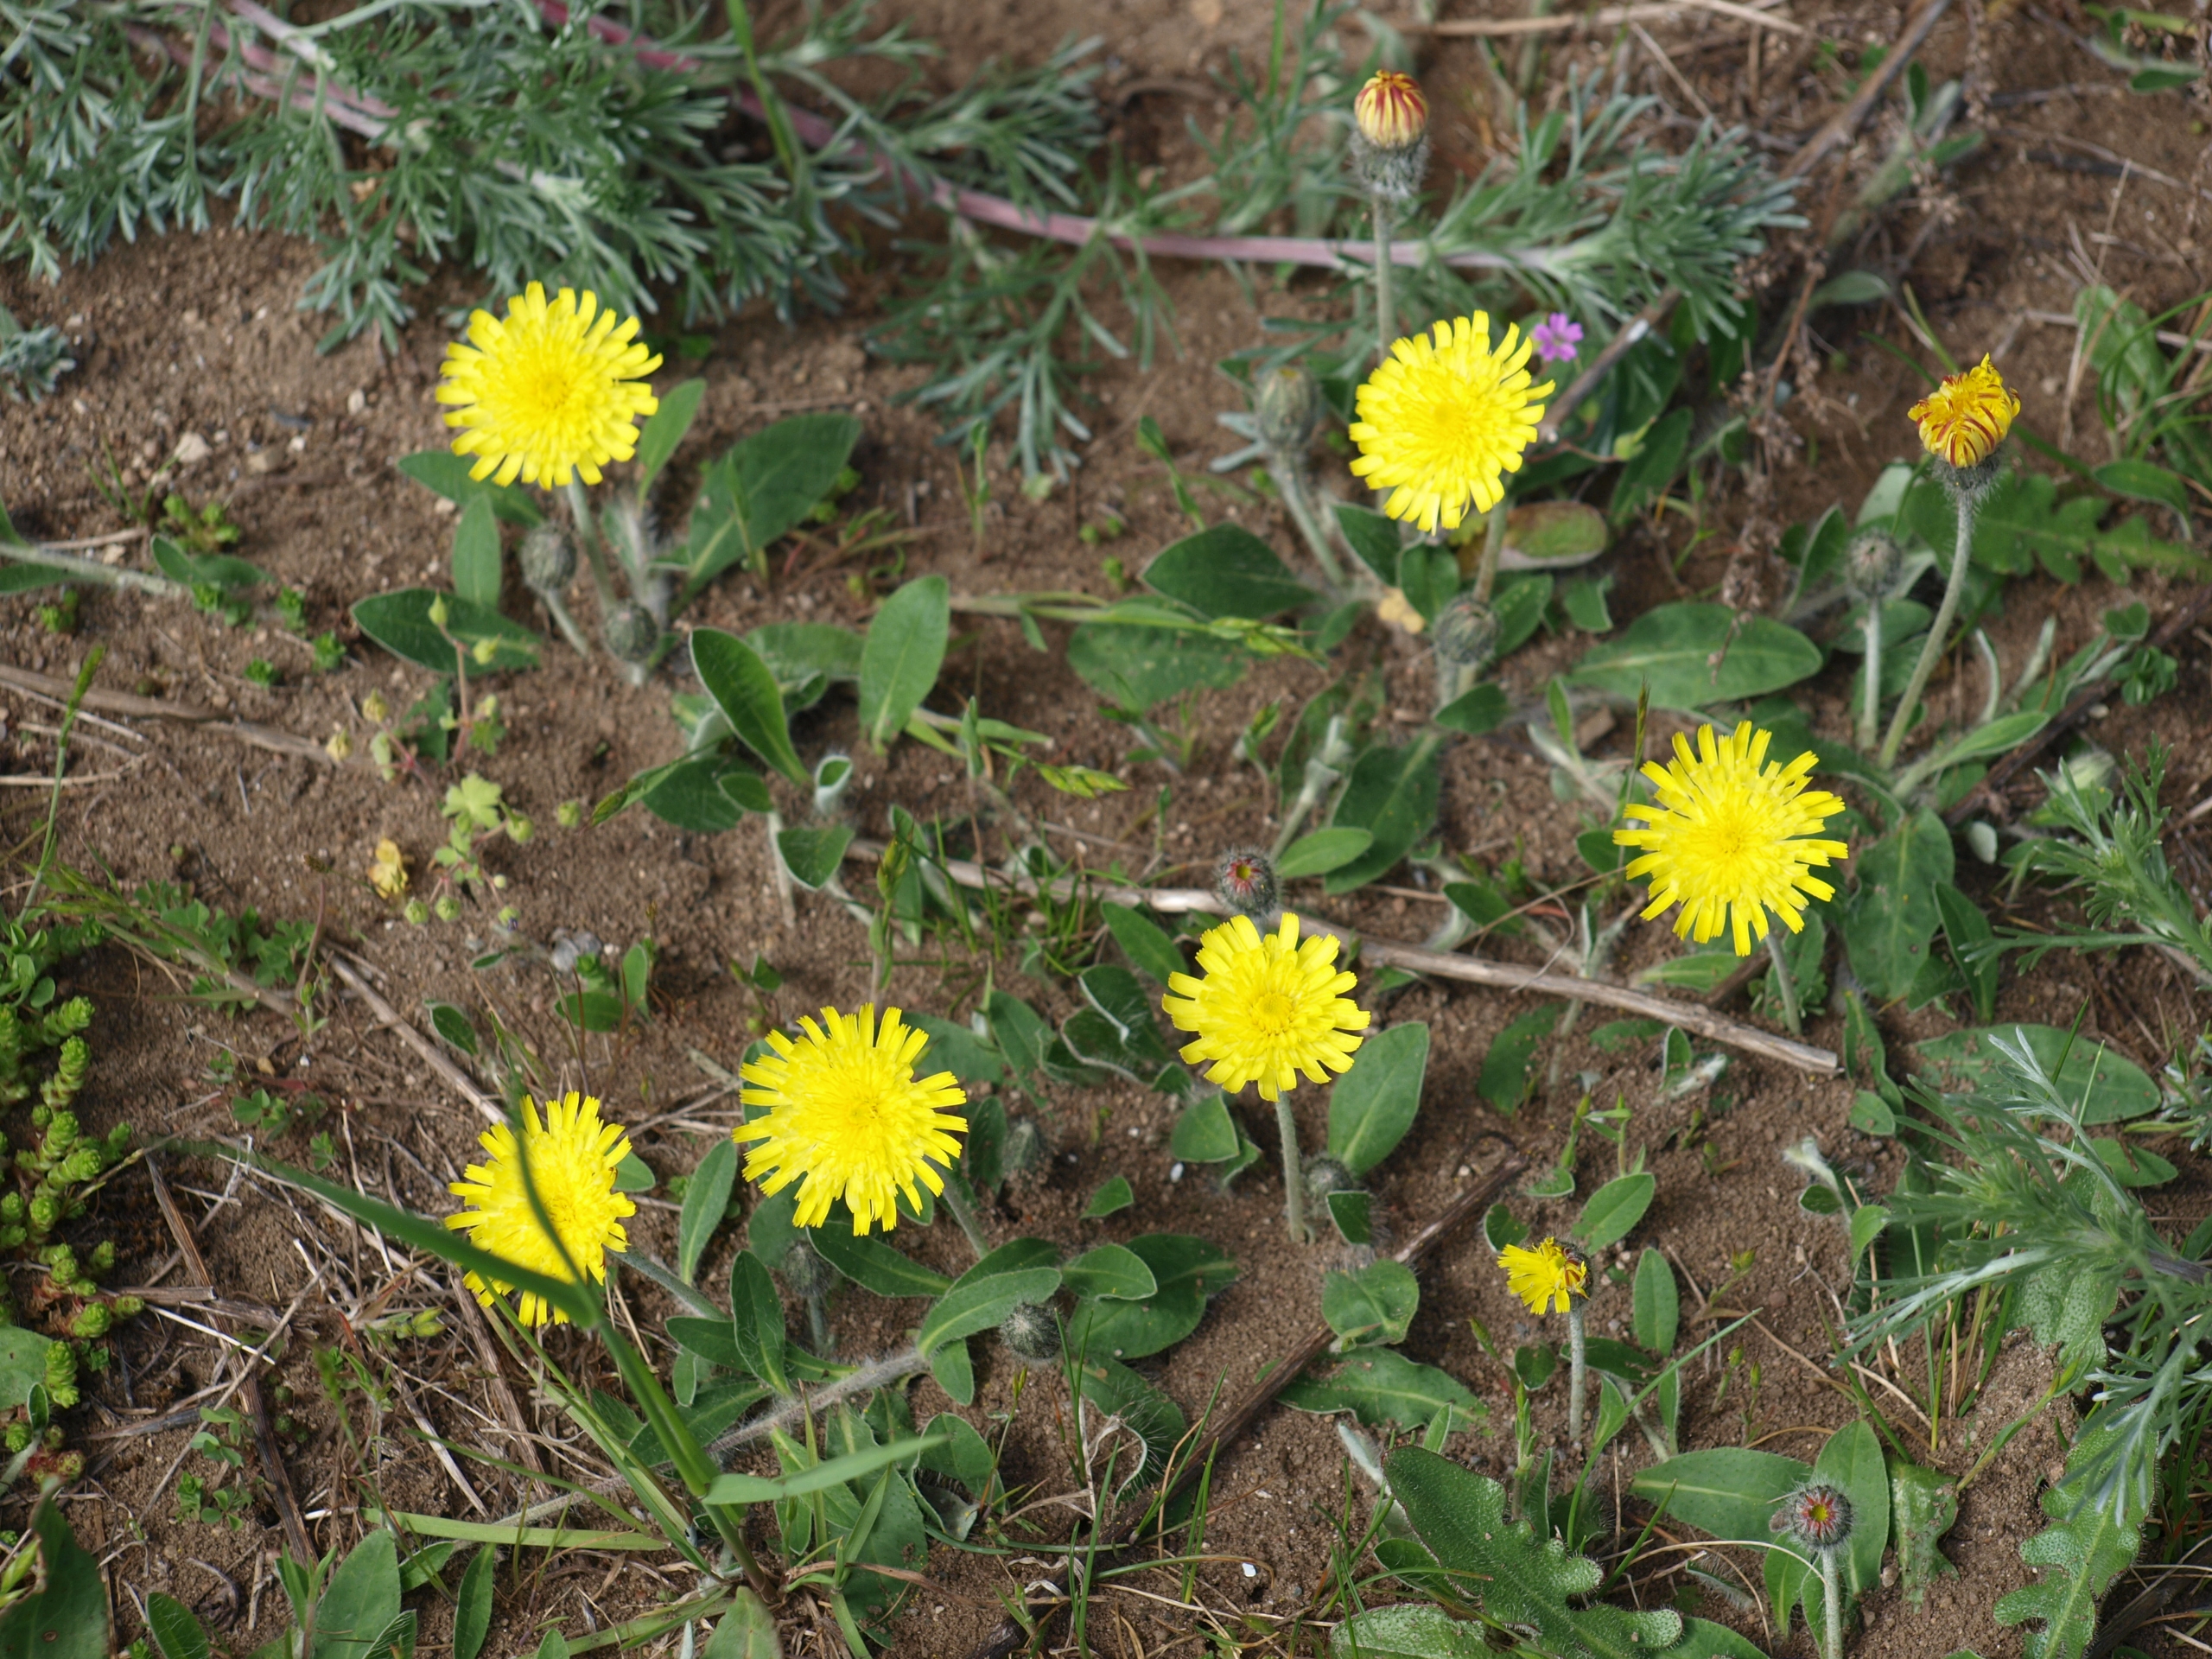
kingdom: Plantae
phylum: Tracheophyta
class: Magnoliopsida
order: Asterales
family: Asteraceae
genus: Pilosella
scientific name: Pilosella officinarum
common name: Håret høgeurt
